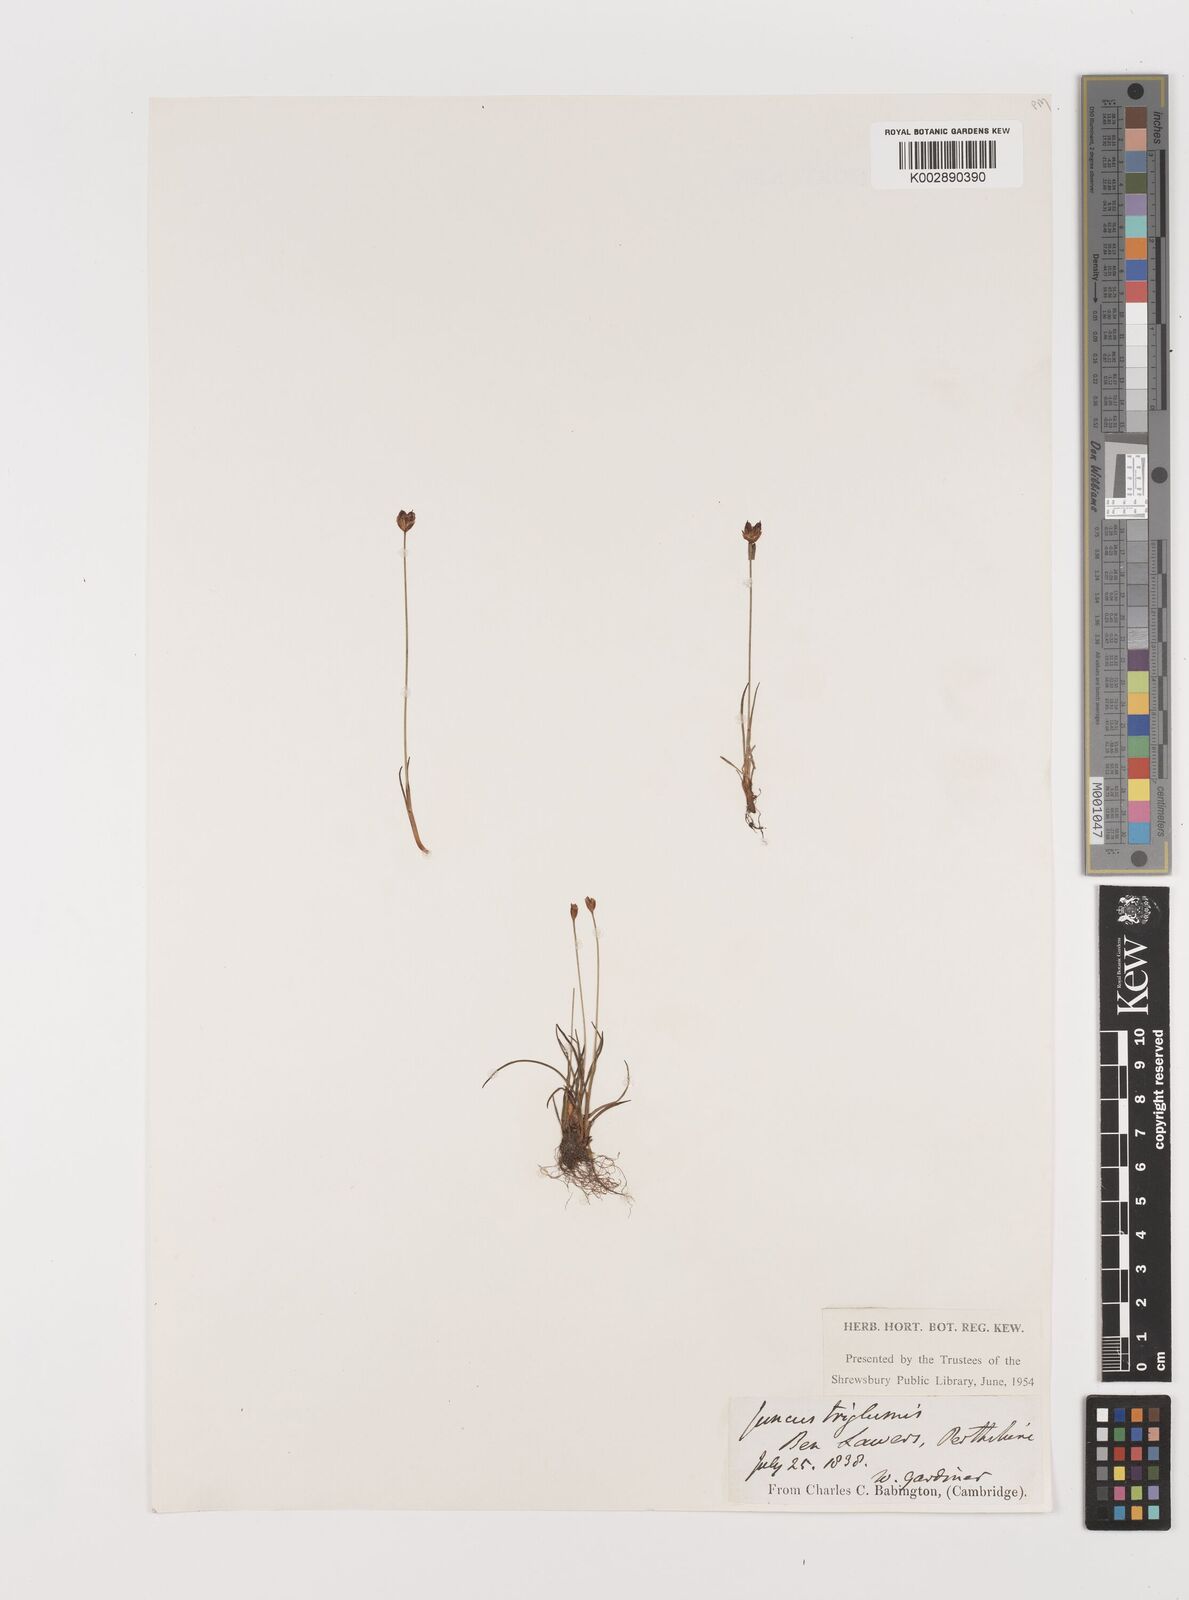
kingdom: Plantae
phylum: Tracheophyta
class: Liliopsida
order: Poales
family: Juncaceae
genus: Juncus
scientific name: Juncus triglumis
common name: Three-flowered rush
